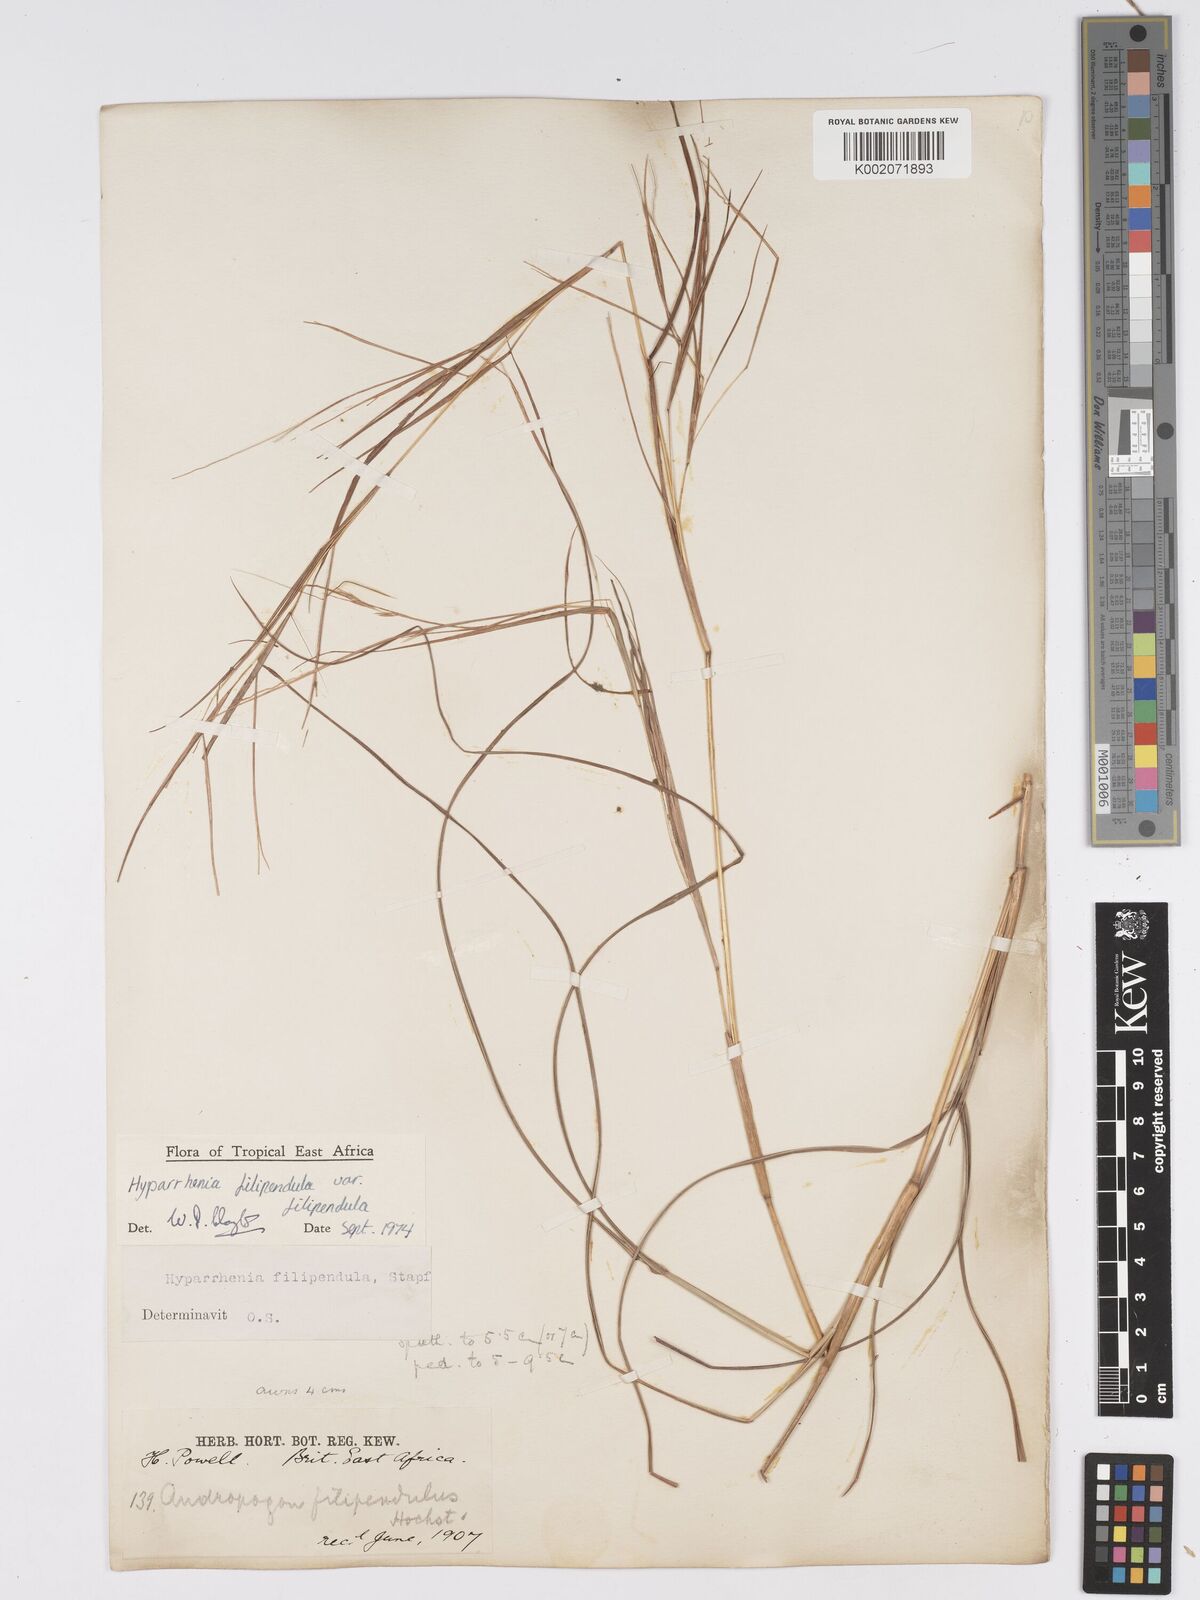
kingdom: Plantae
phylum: Tracheophyta
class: Liliopsida
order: Poales
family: Poaceae
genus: Hyparrhenia
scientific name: Hyparrhenia filipendula
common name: Tambookie grass
